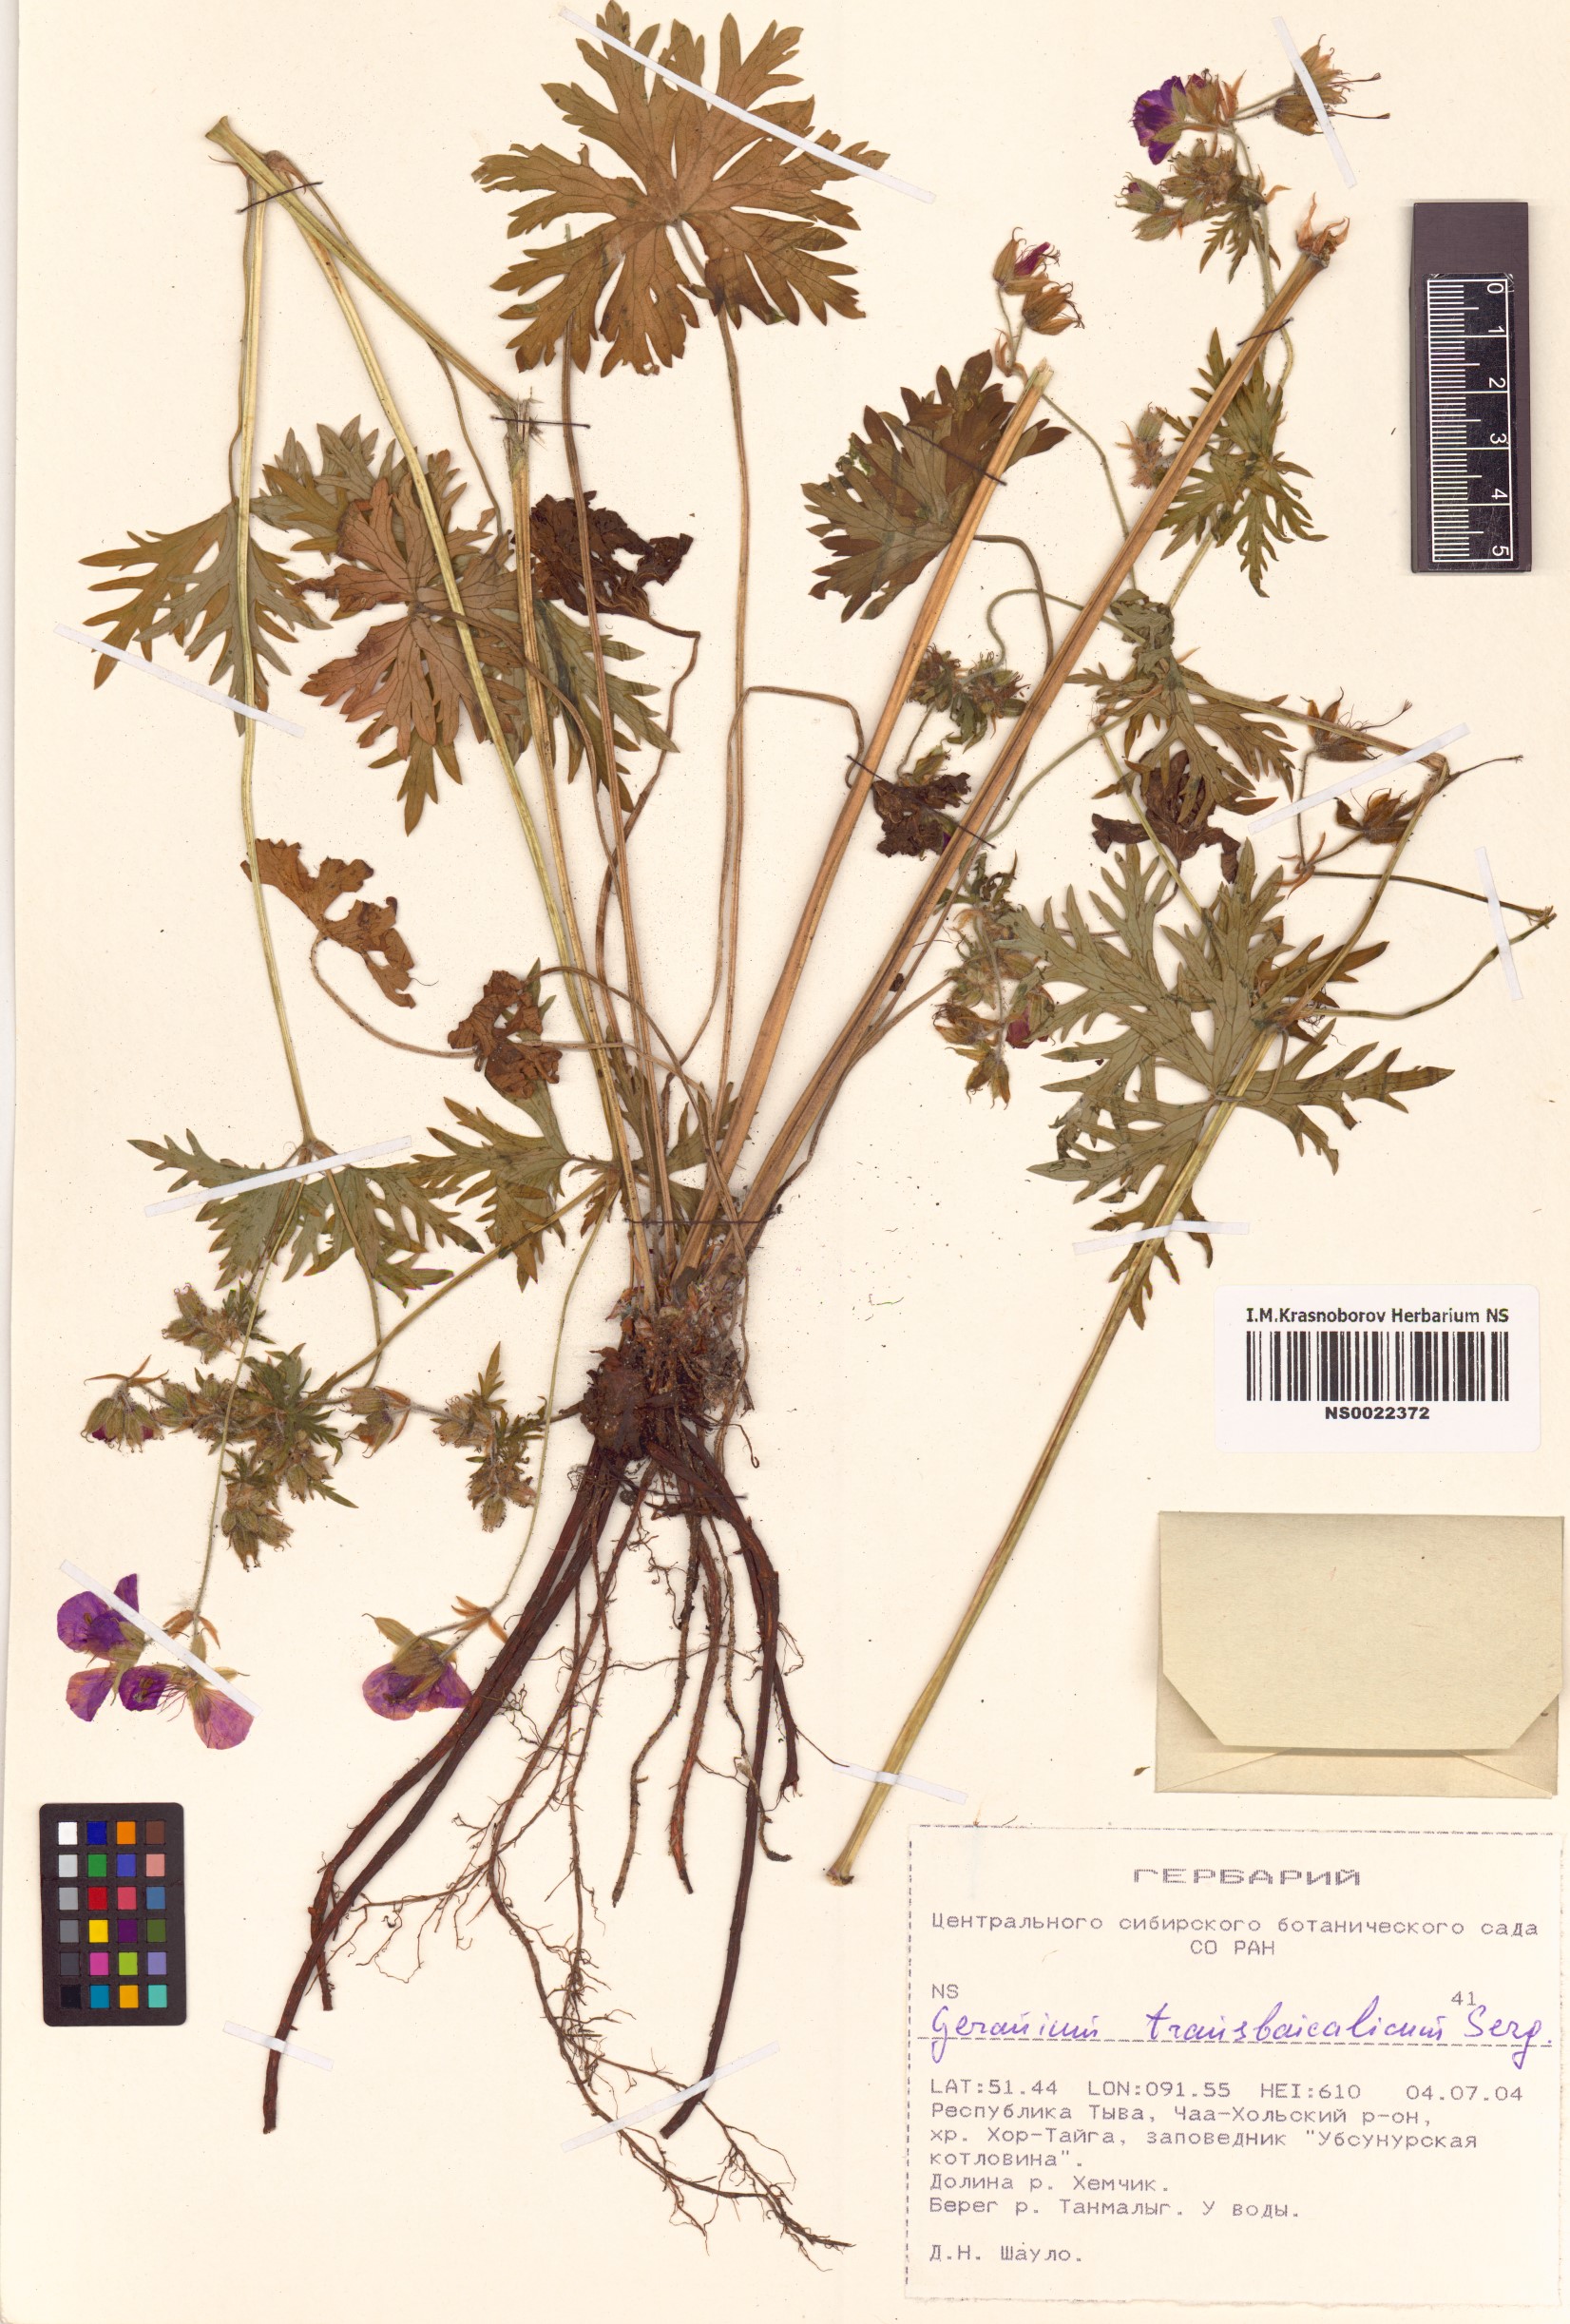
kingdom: Plantae
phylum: Tracheophyta
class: Magnoliopsida
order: Geraniales
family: Geraniaceae
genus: Geranium
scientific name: Geranium pratense
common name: Meadow crane's-bill
